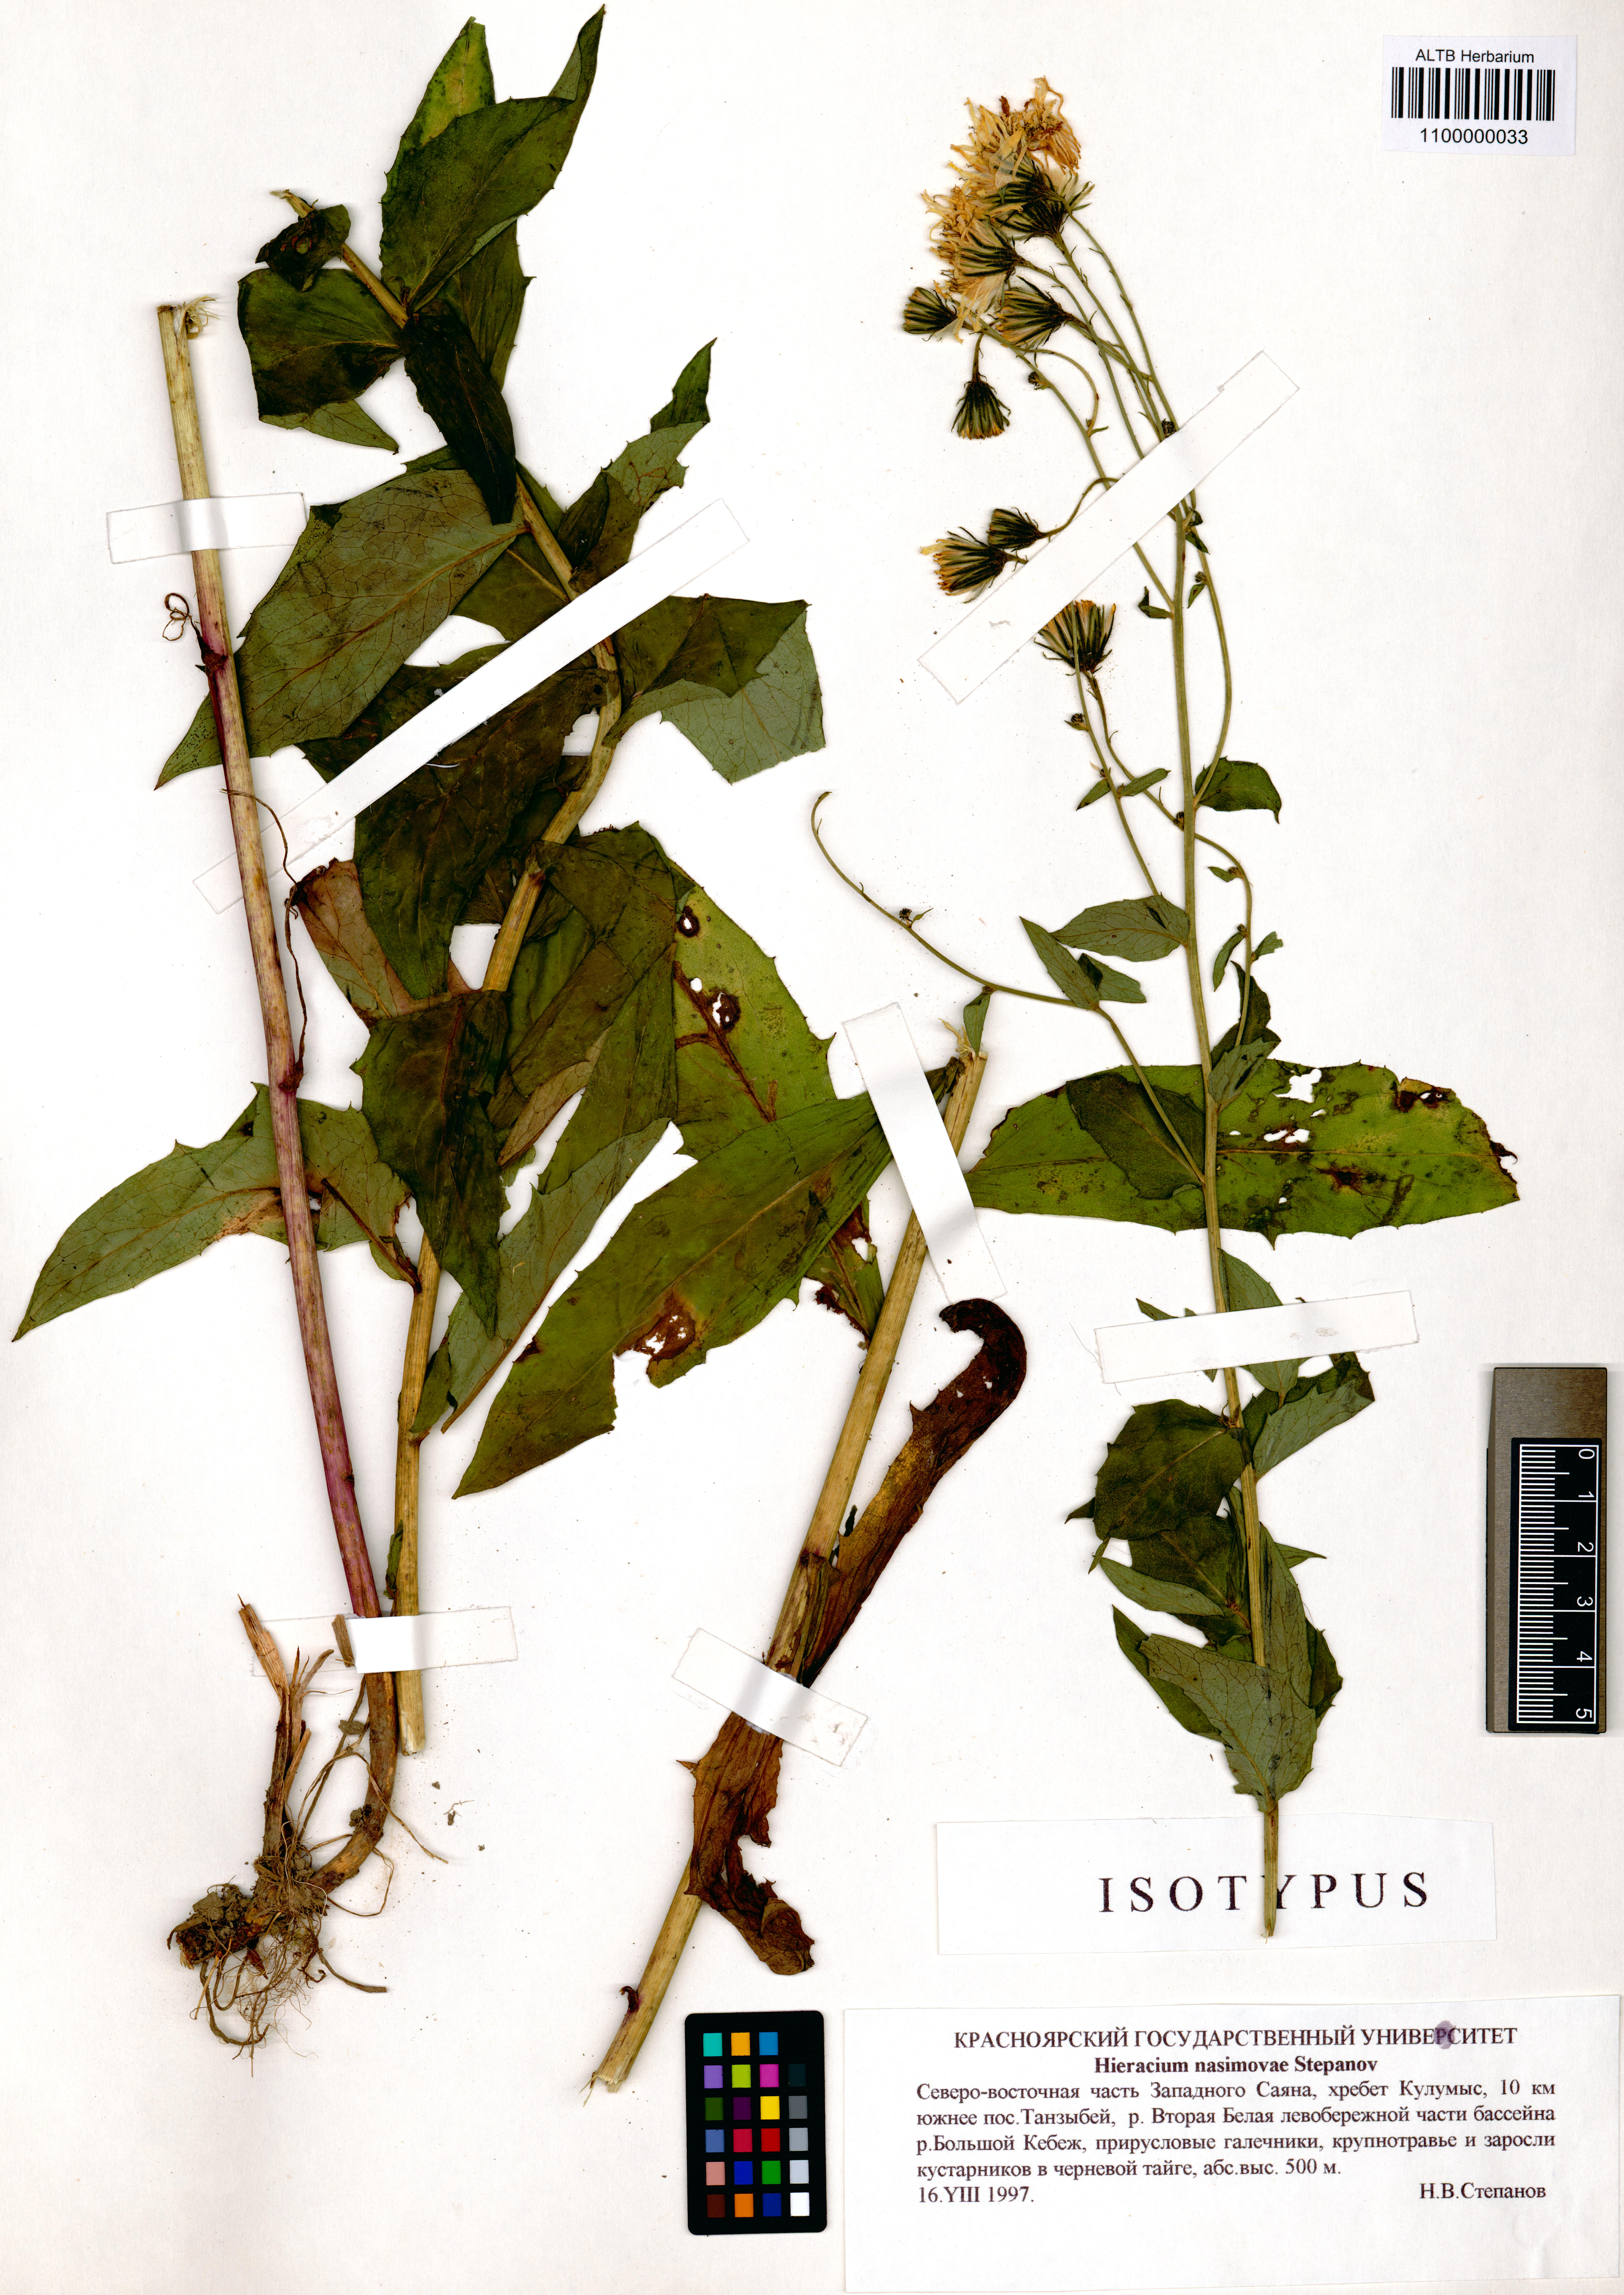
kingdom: Plantae
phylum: Tracheophyta
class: Magnoliopsida
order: Asterales
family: Asteraceae
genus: Hieracium
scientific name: Hieracium nasimovae
